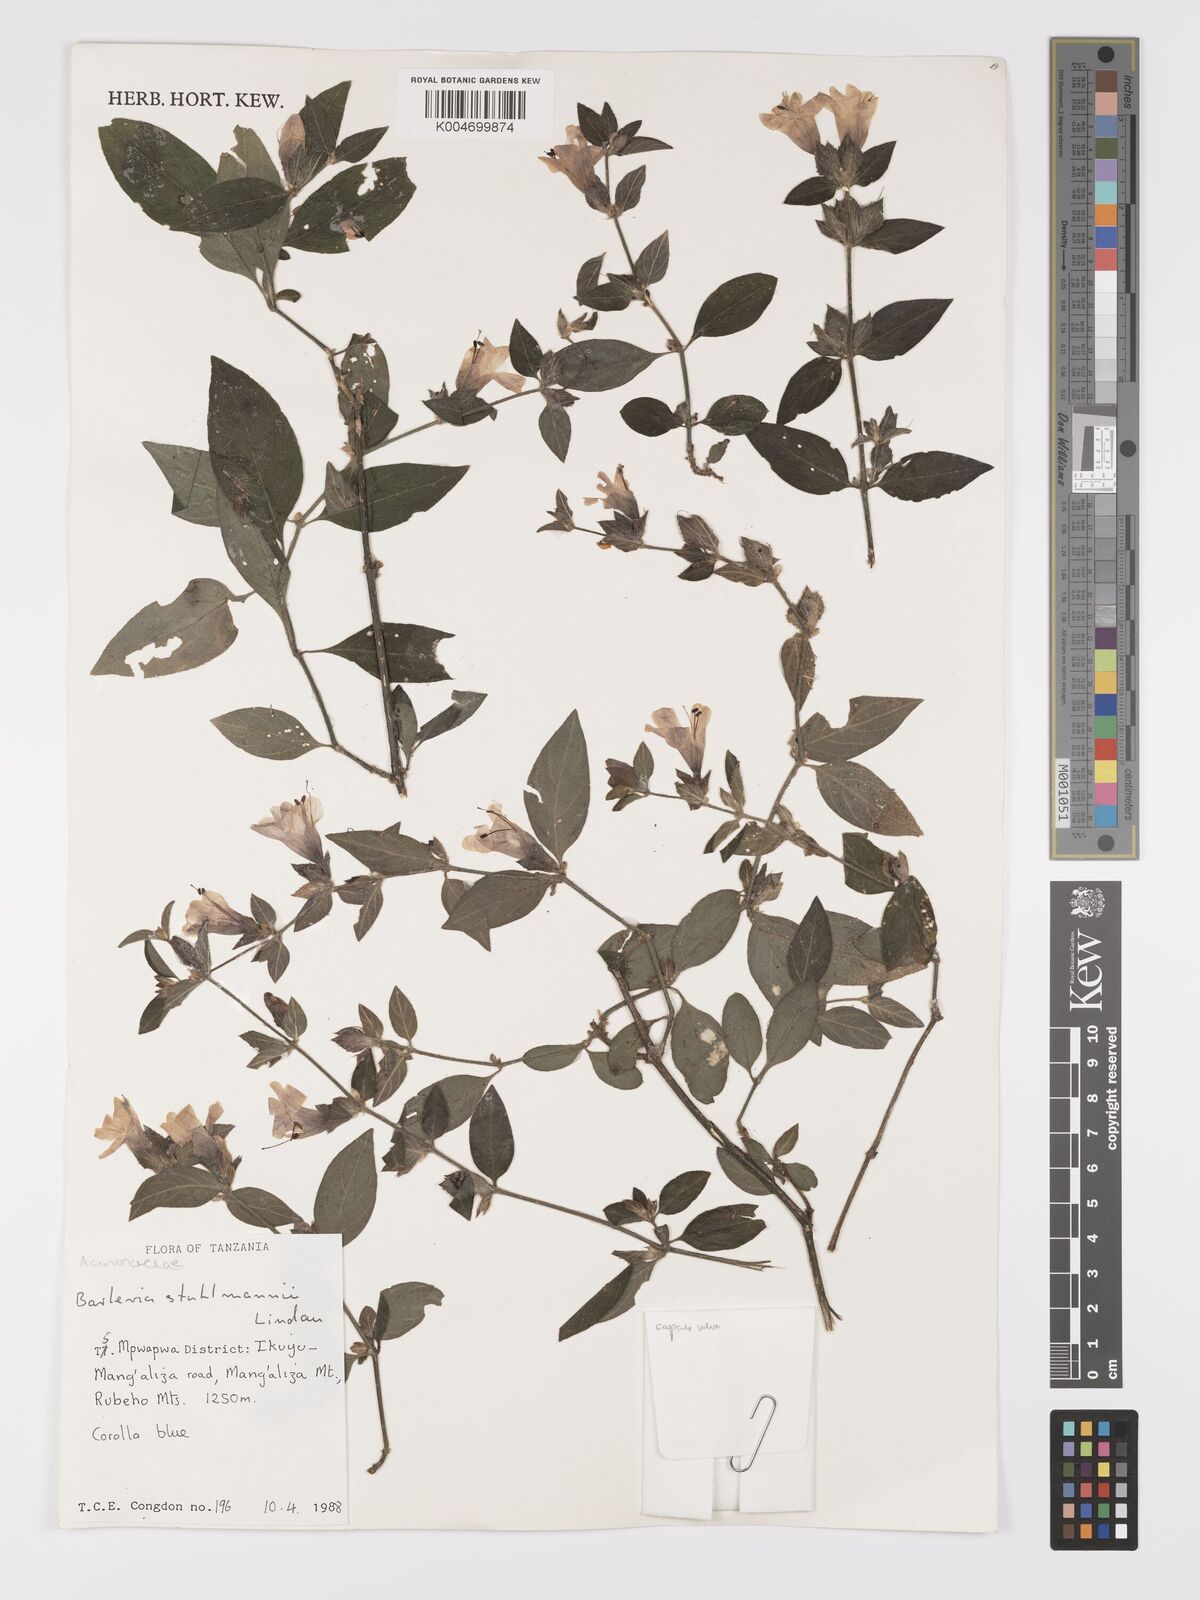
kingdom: Plantae
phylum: Tracheophyta
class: Magnoliopsida
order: Lamiales
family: Acanthaceae
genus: Barleria
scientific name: Barleria ventricosa
